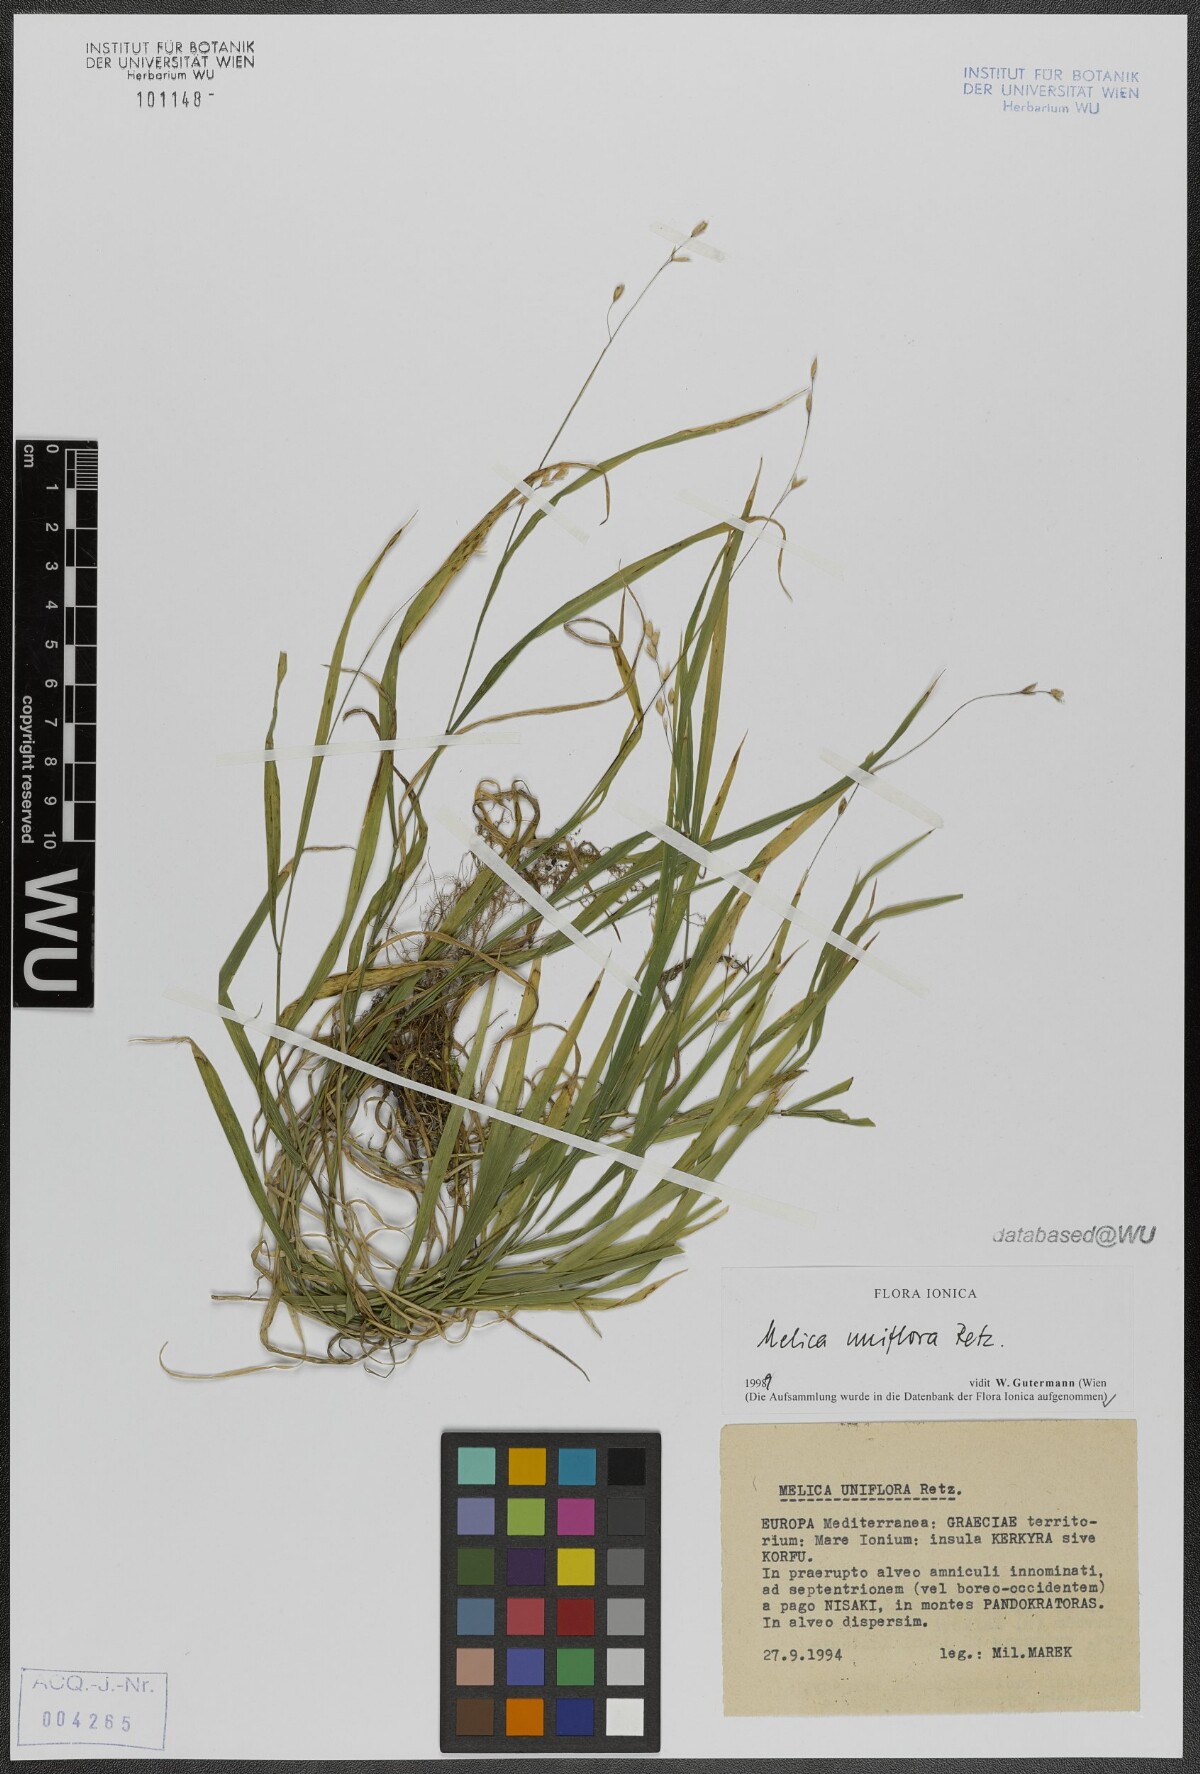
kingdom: Plantae
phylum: Tracheophyta
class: Liliopsida
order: Poales
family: Poaceae
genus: Melica
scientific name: Melica uniflora
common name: Wood melick
